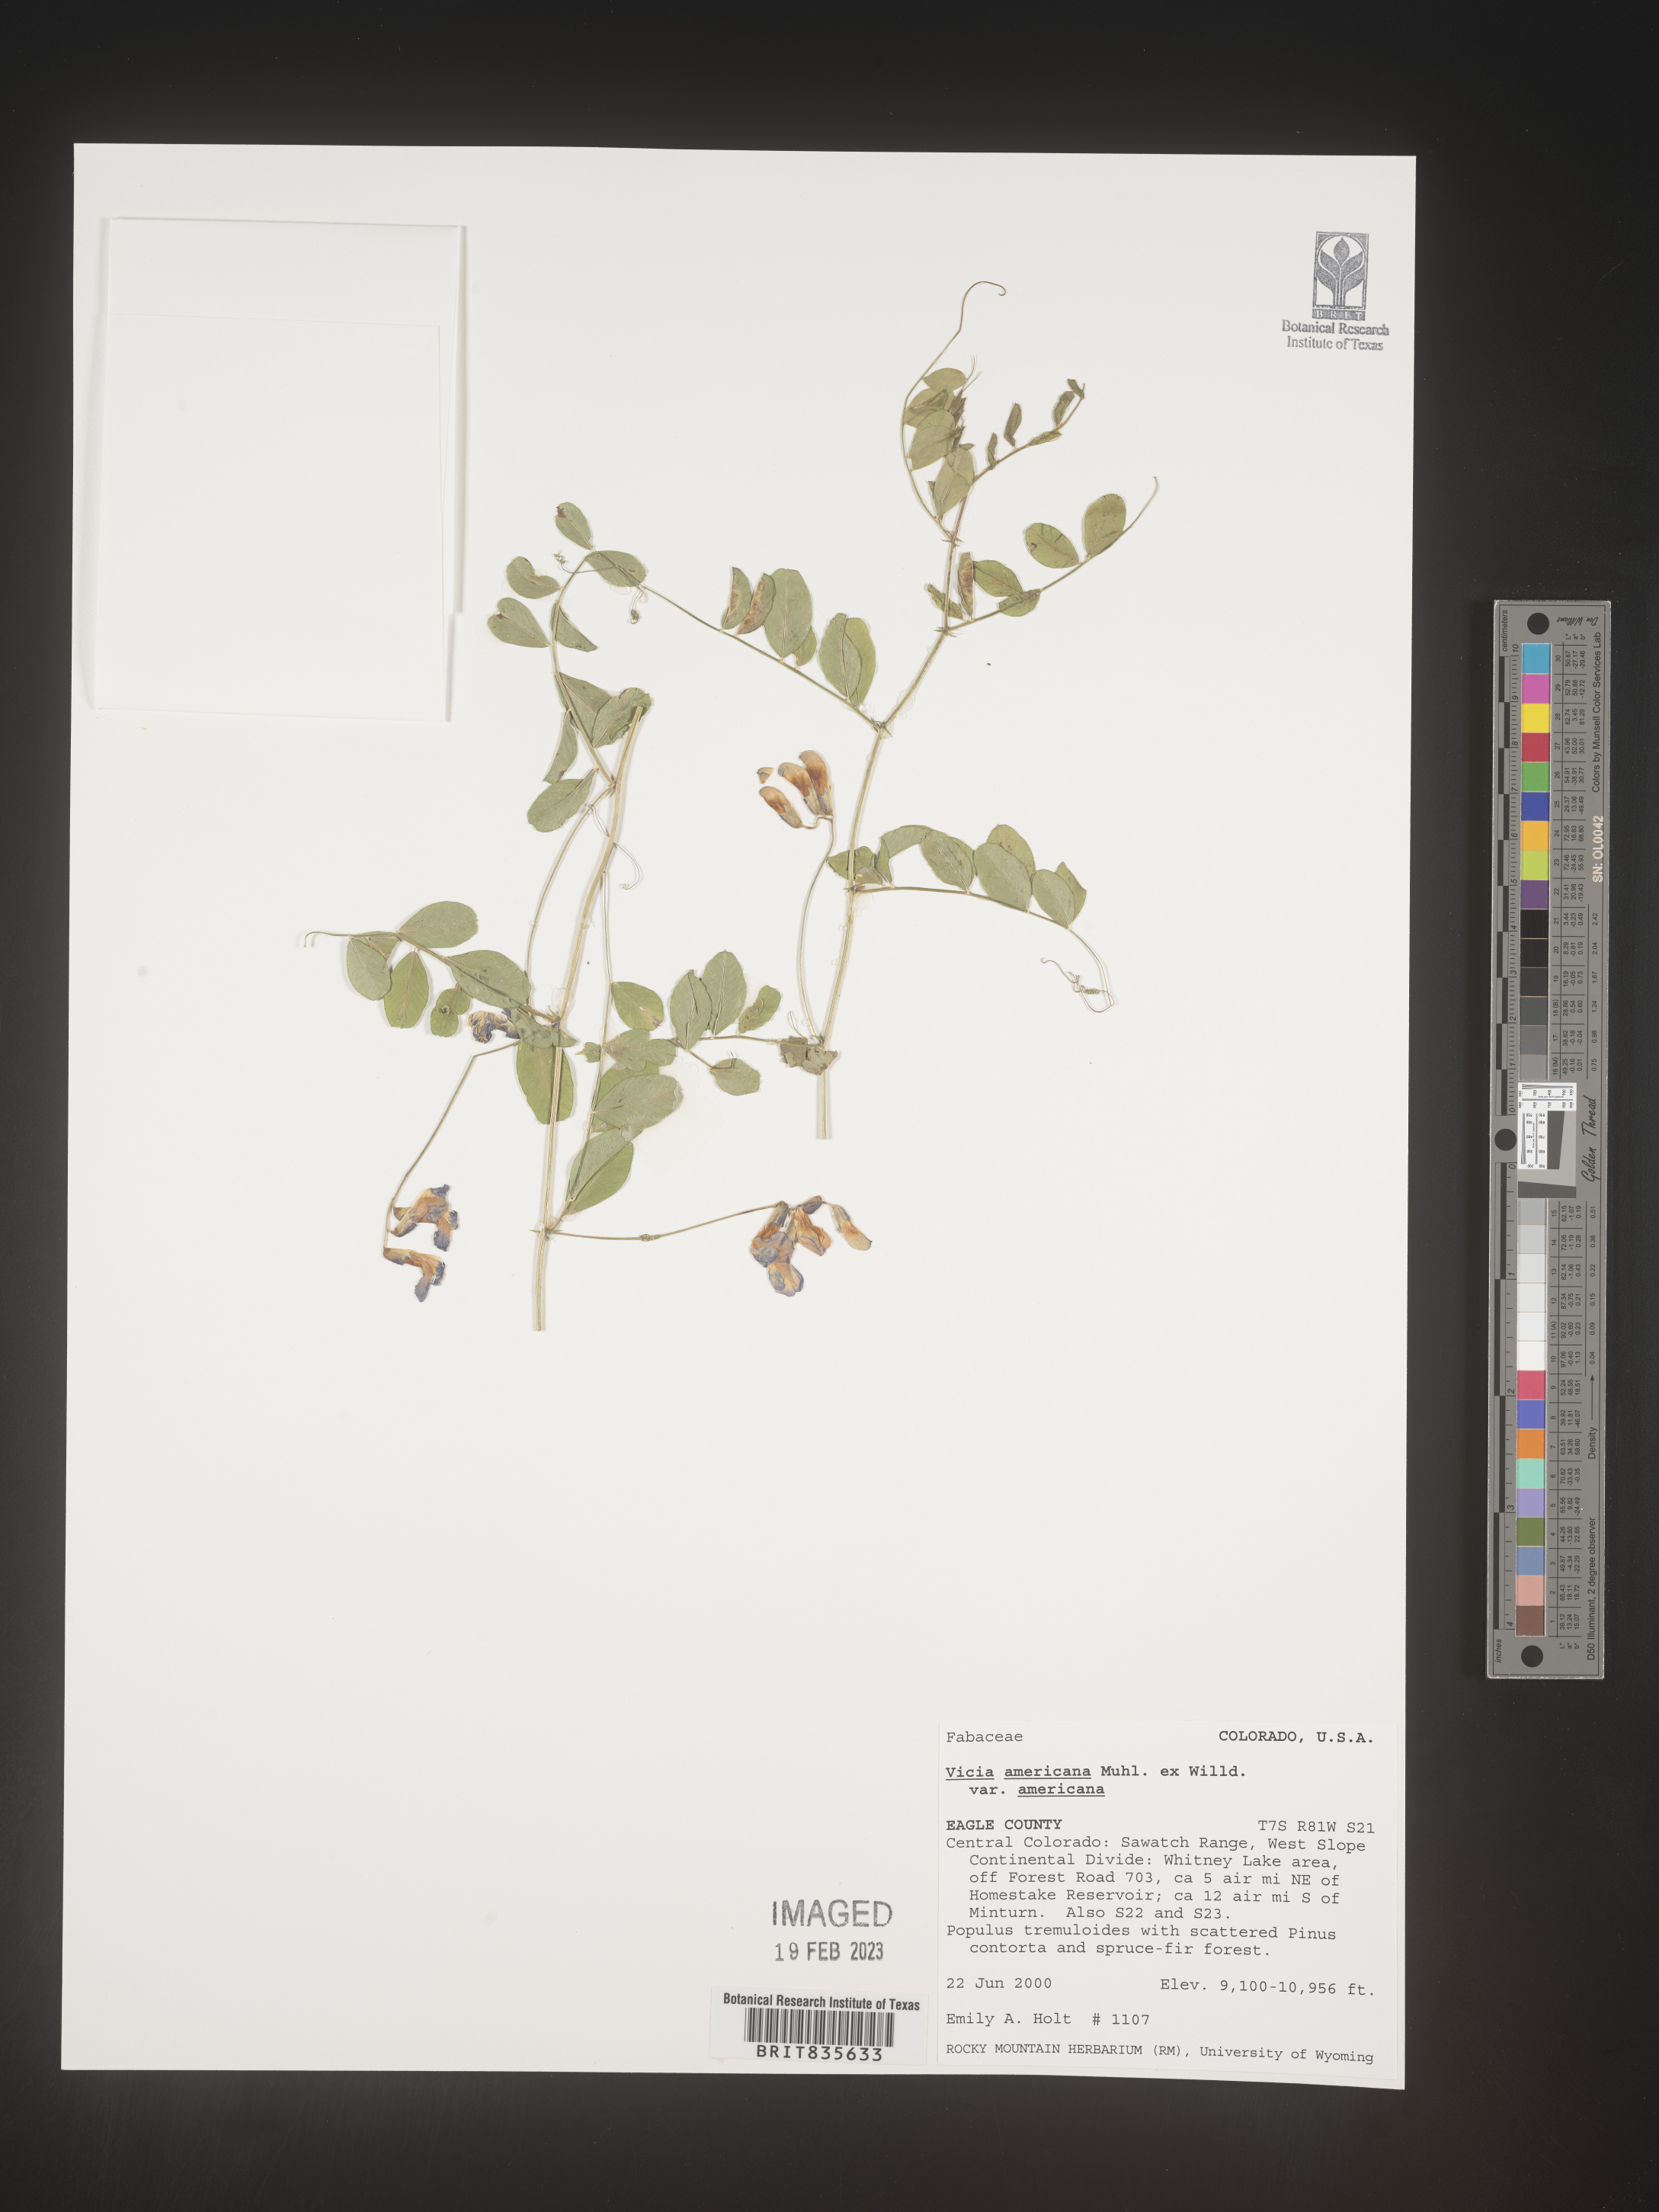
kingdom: Plantae
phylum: Tracheophyta
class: Magnoliopsida
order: Fabales
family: Fabaceae
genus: Vicia
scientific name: Vicia americana
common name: American vetch
